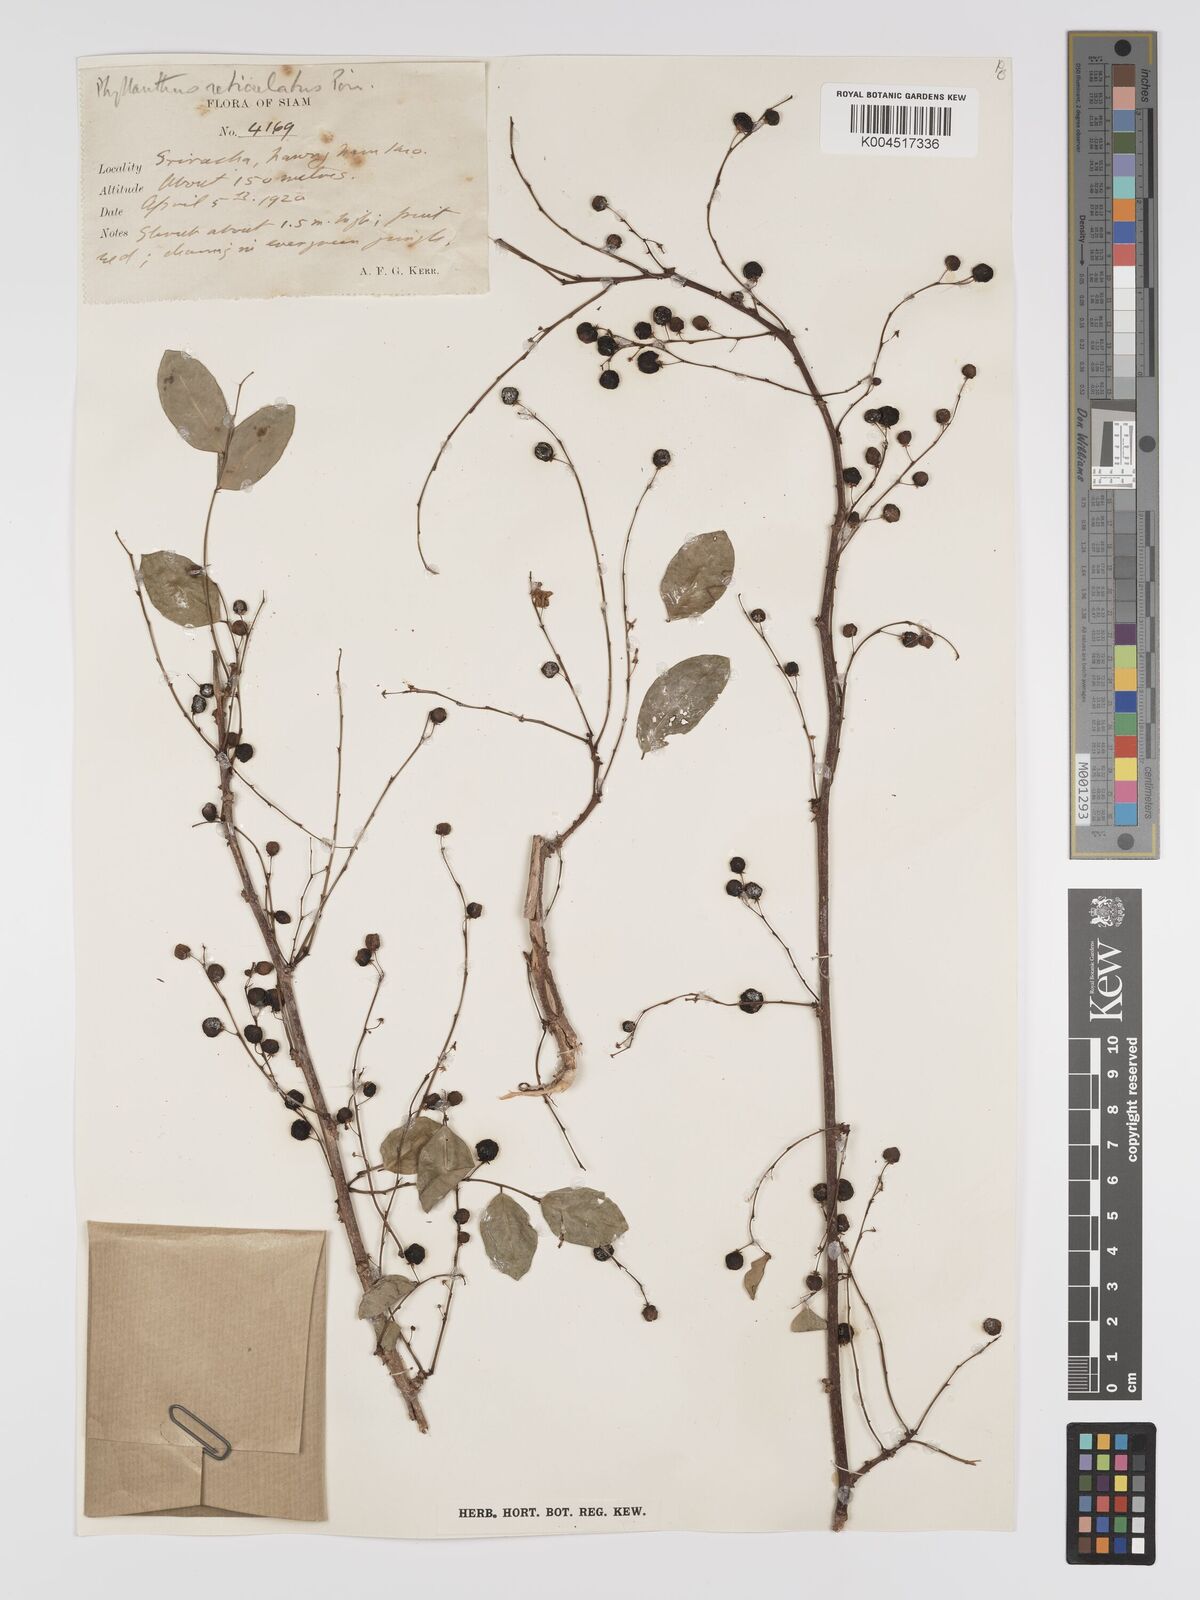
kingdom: Plantae
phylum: Tracheophyta
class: Magnoliopsida
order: Malpighiales
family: Phyllanthaceae
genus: Phyllanthus
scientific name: Phyllanthus reticulatus
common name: Potato bush
